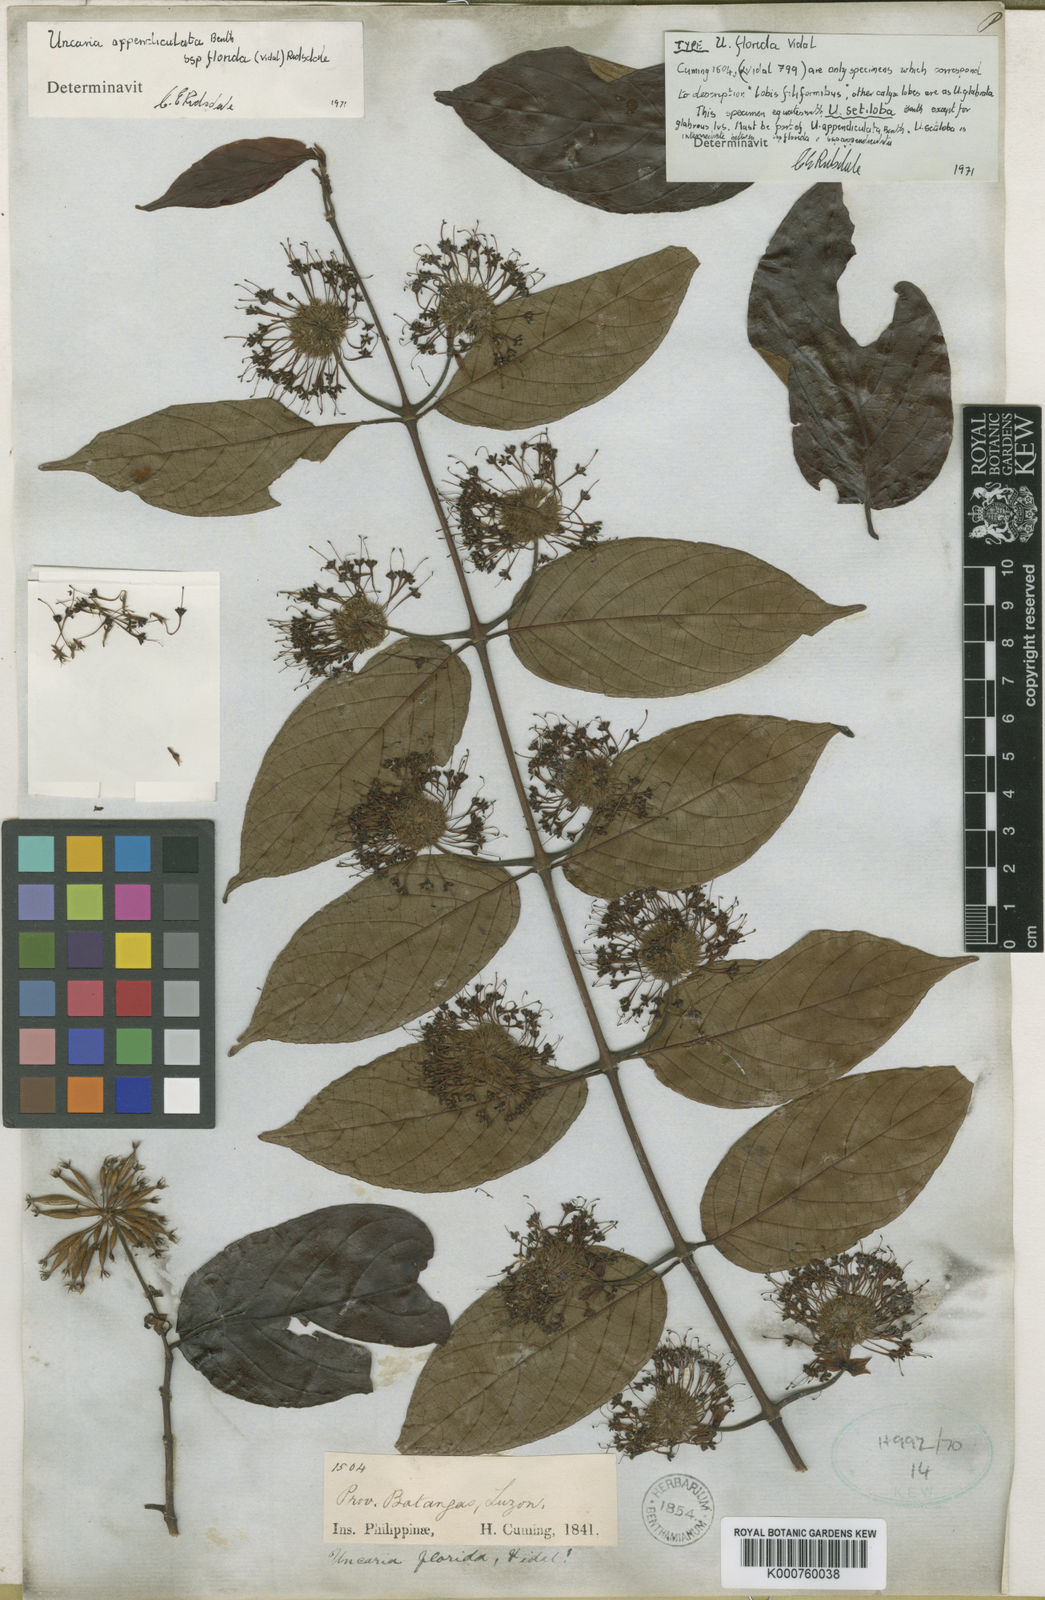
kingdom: Plantae
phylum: Tracheophyta
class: Magnoliopsida
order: Gentianales
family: Rubiaceae
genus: Uncaria
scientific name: Uncaria lanosa
